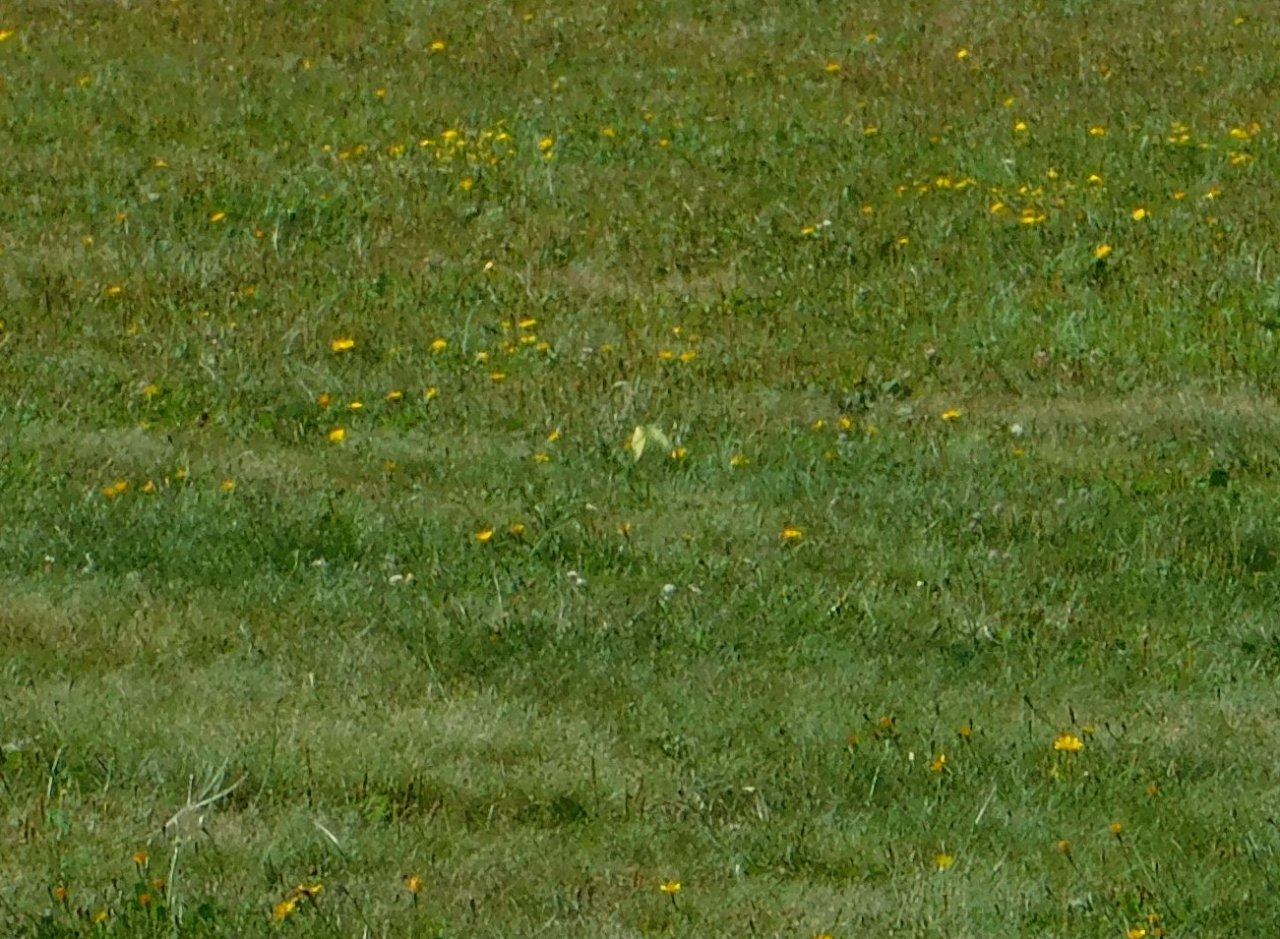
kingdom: Animalia
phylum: Arthropoda
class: Insecta
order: Lepidoptera
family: Pieridae
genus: Colias
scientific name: Colias philodice
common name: Clouded Sulphur
